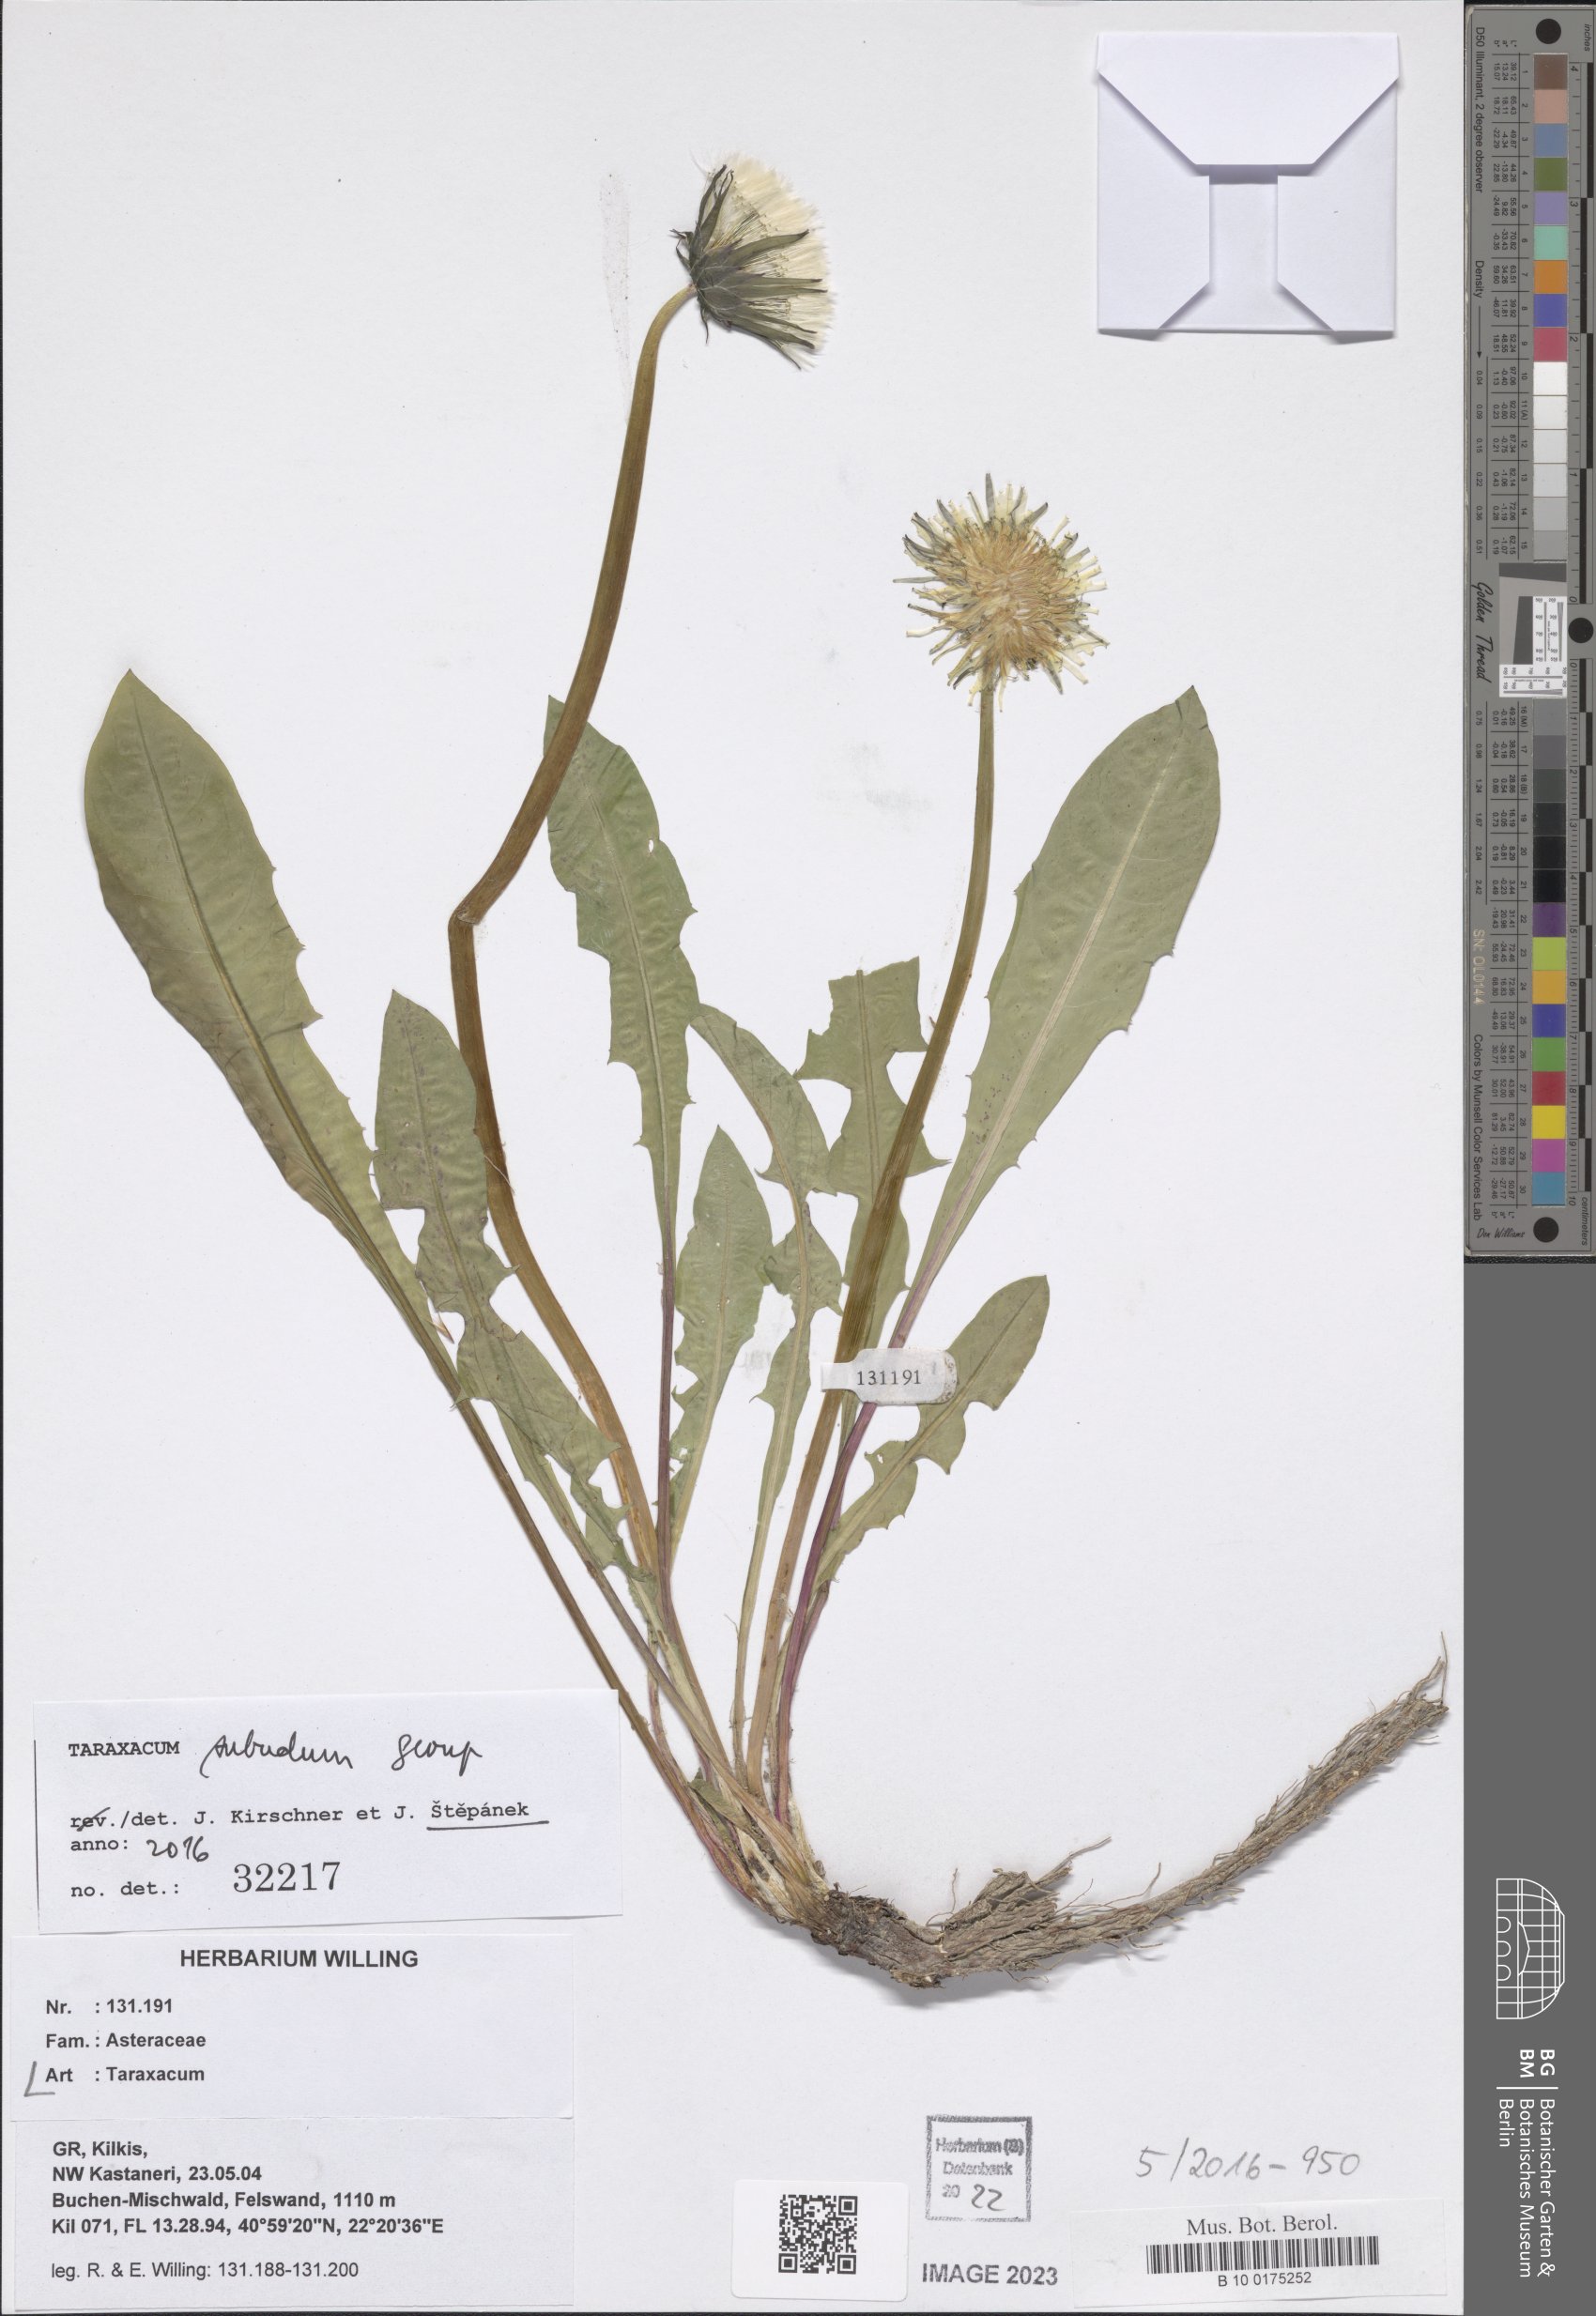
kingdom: Plantae
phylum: Tracheophyta
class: Magnoliopsida
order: Asterales
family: Asteraceae
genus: Taraxacum
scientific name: Taraxacum
